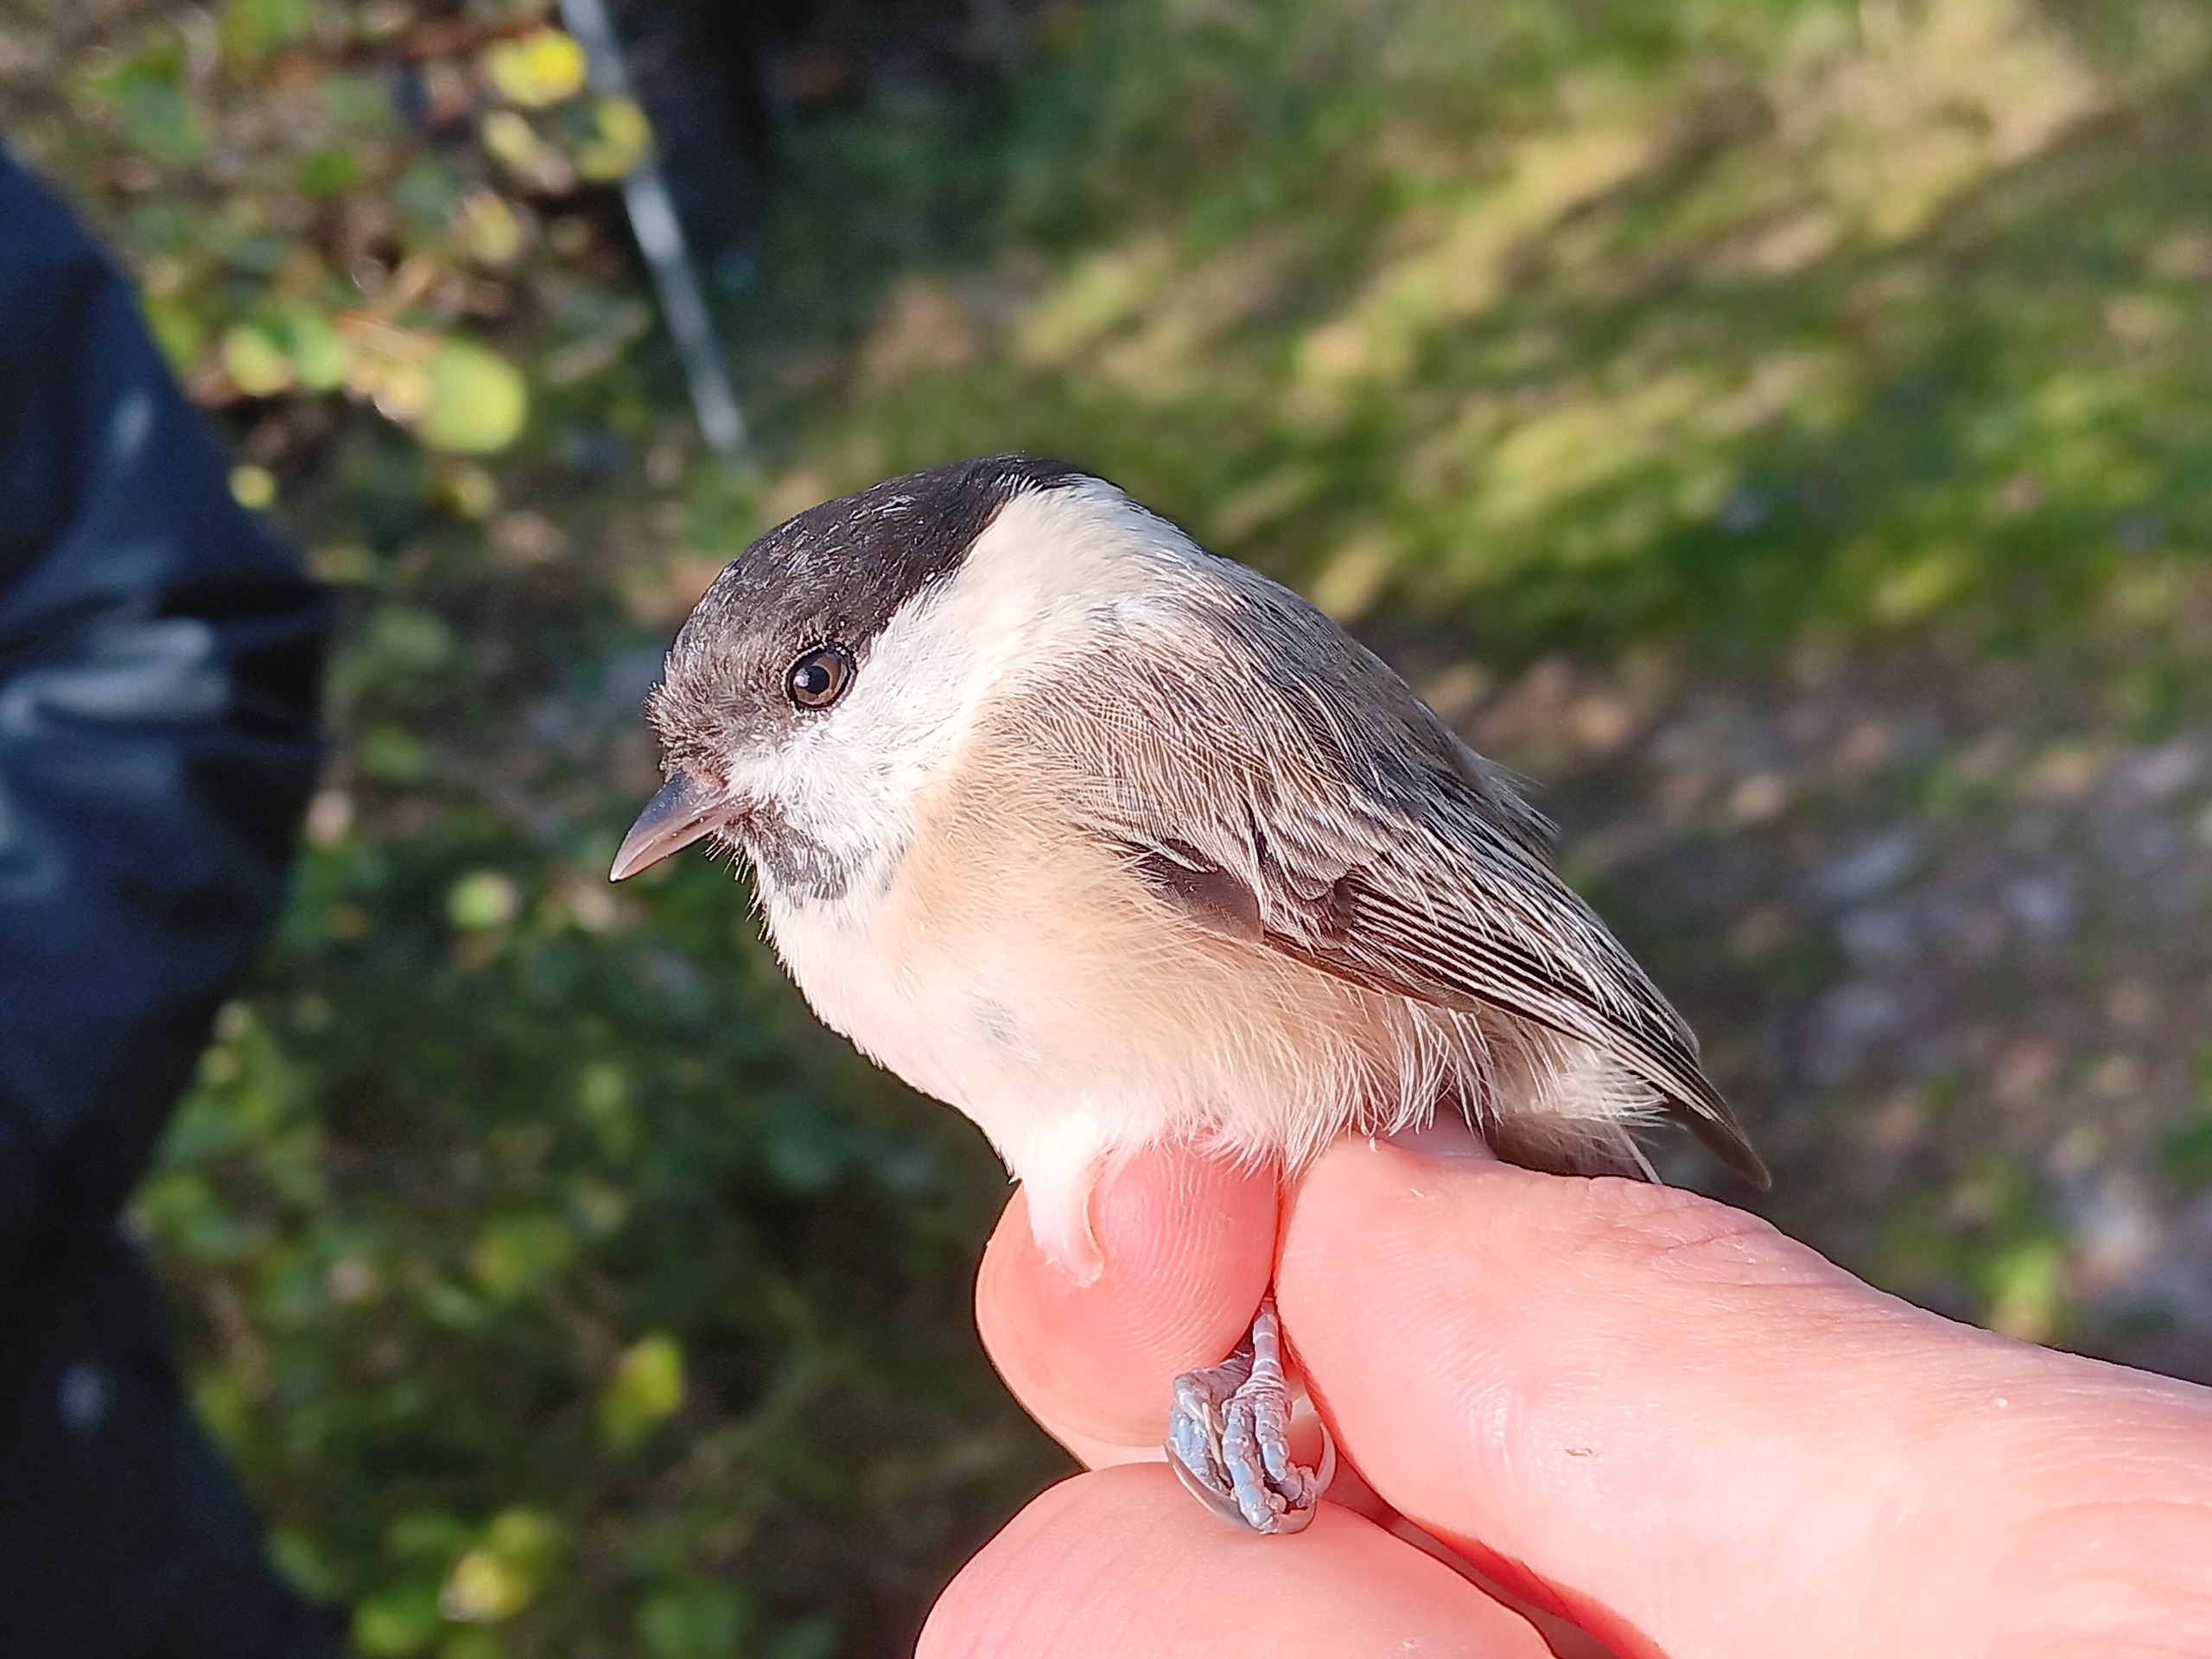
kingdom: Animalia
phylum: Chordata
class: Aves
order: Passeriformes
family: Paridae
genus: Poecile
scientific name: Poecile montanus
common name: Fyrremejse
